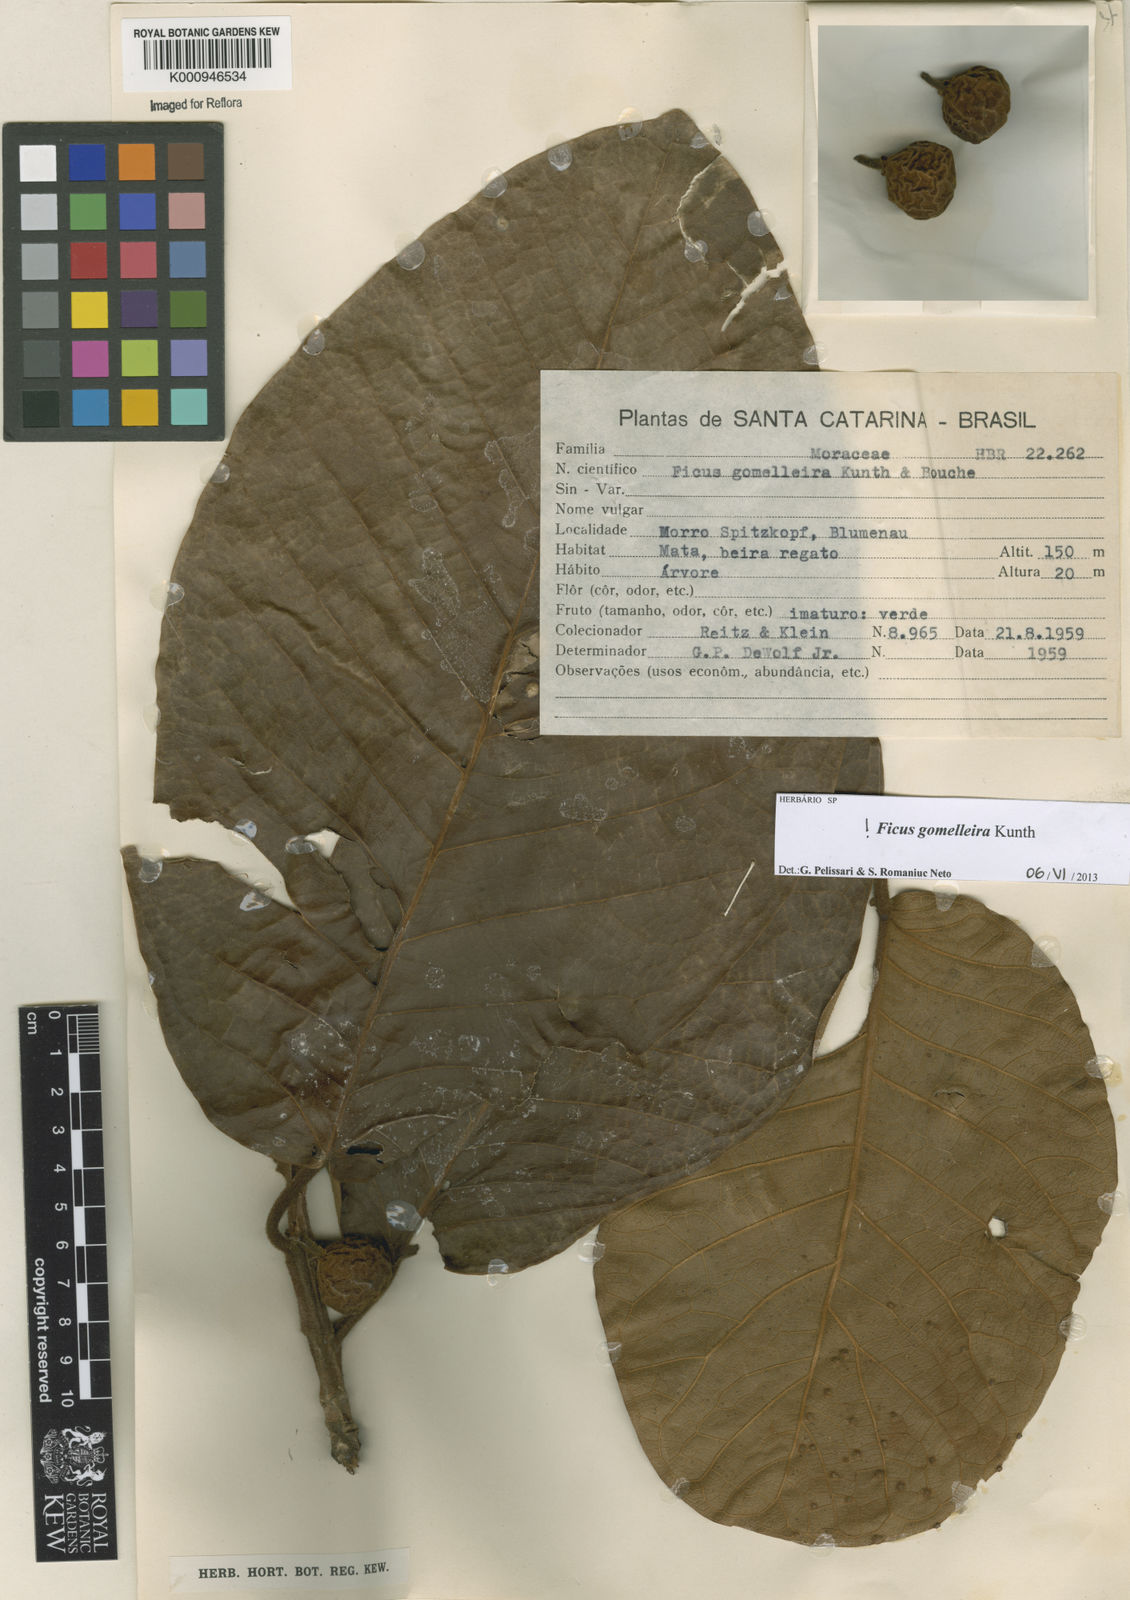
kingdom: Plantae
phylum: Tracheophyta
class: Magnoliopsida
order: Rosales
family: Moraceae
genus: Ficus
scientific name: Ficus gomelleira
